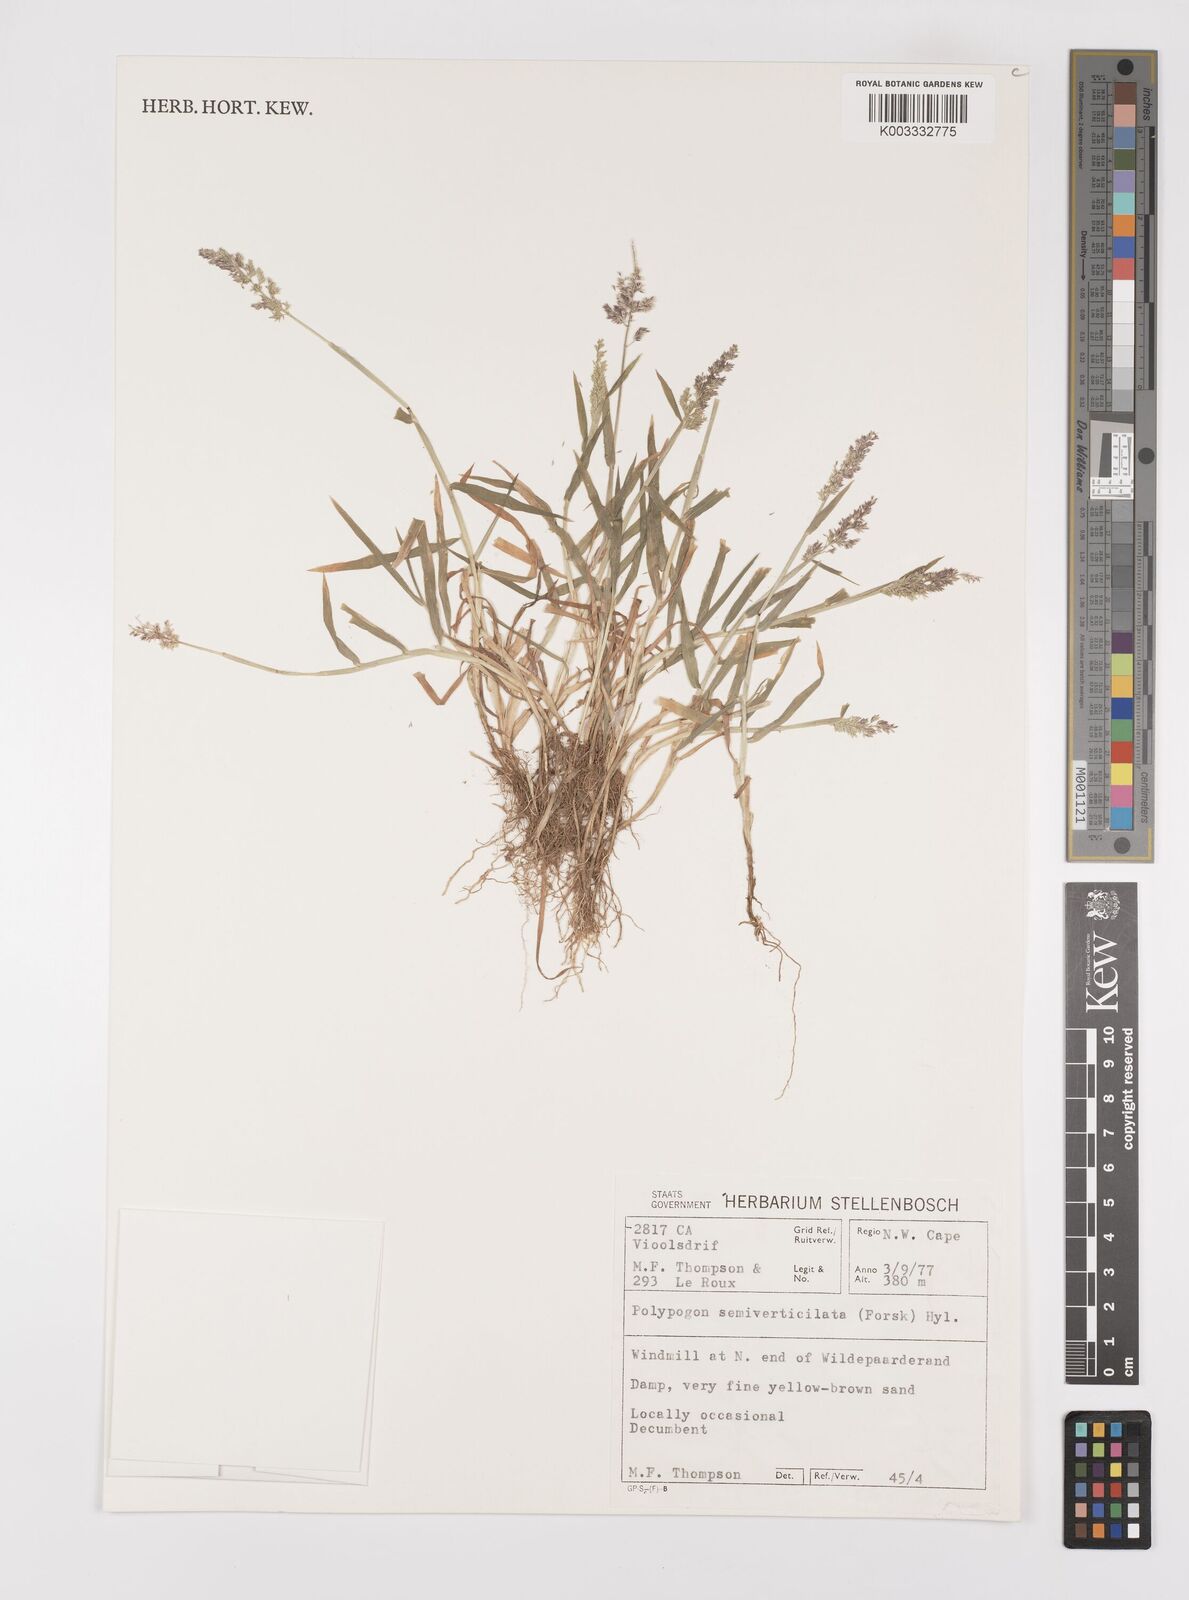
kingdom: Plantae
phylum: Tracheophyta
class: Liliopsida
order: Poales
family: Poaceae
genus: Polypogon
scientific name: Polypogon viridis
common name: Water bent
